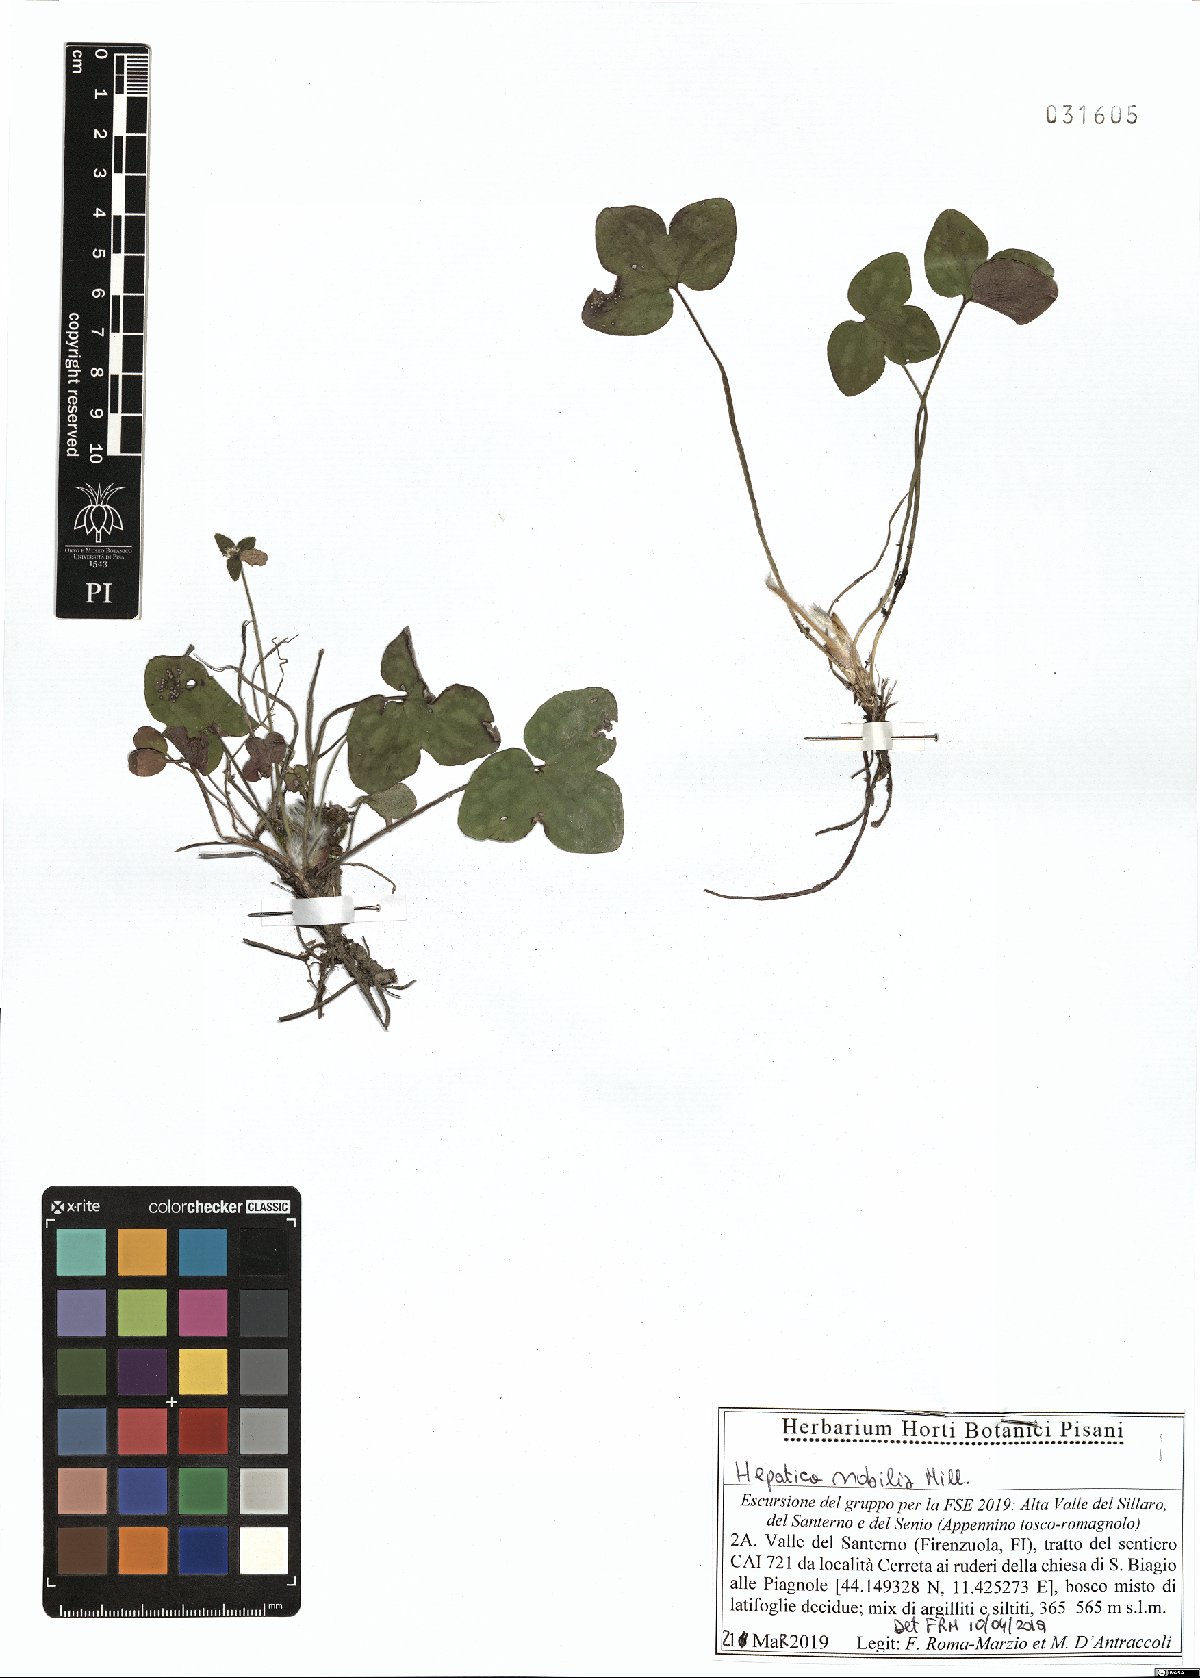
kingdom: Plantae
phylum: Tracheophyta
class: Magnoliopsida
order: Ranunculales
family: Ranunculaceae
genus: Hepatica
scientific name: Hepatica nobilis
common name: Liverleaf
